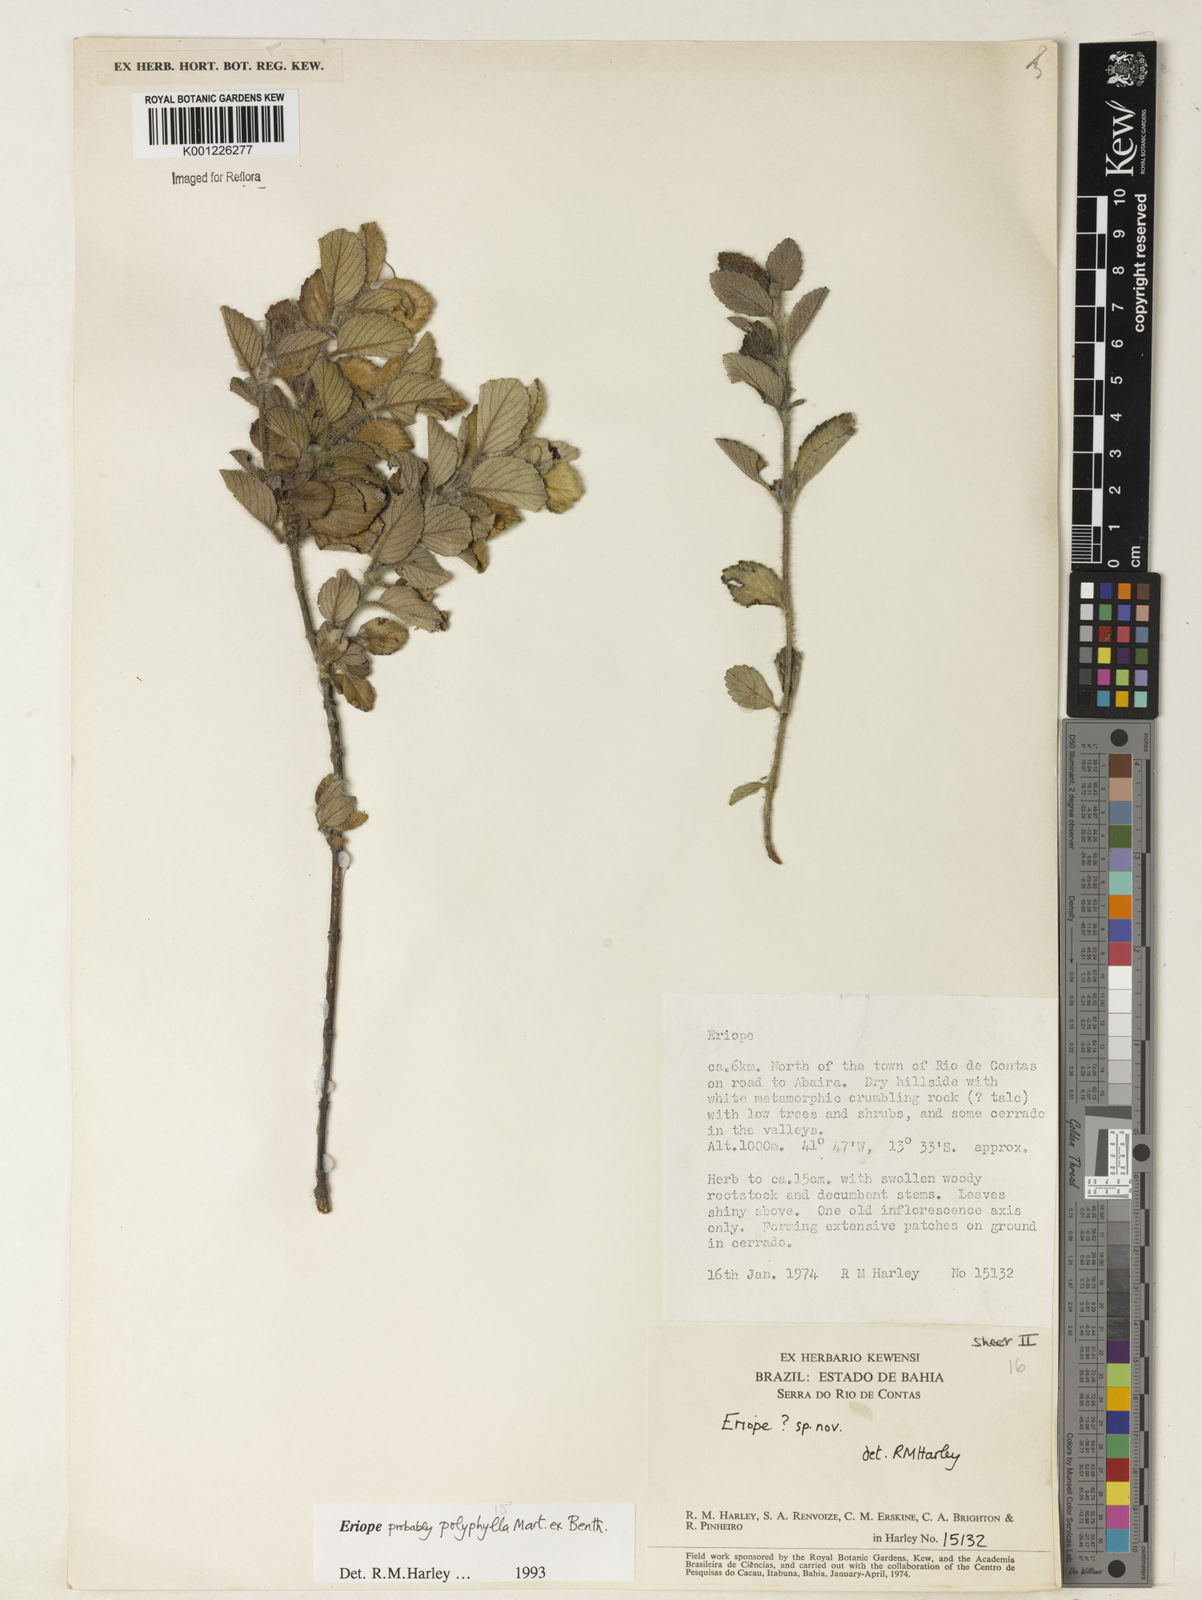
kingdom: Plantae
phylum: Tracheophyta
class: Magnoliopsida
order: Lamiales
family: Lamiaceae
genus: Eriope
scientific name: Eriope polyphylla
